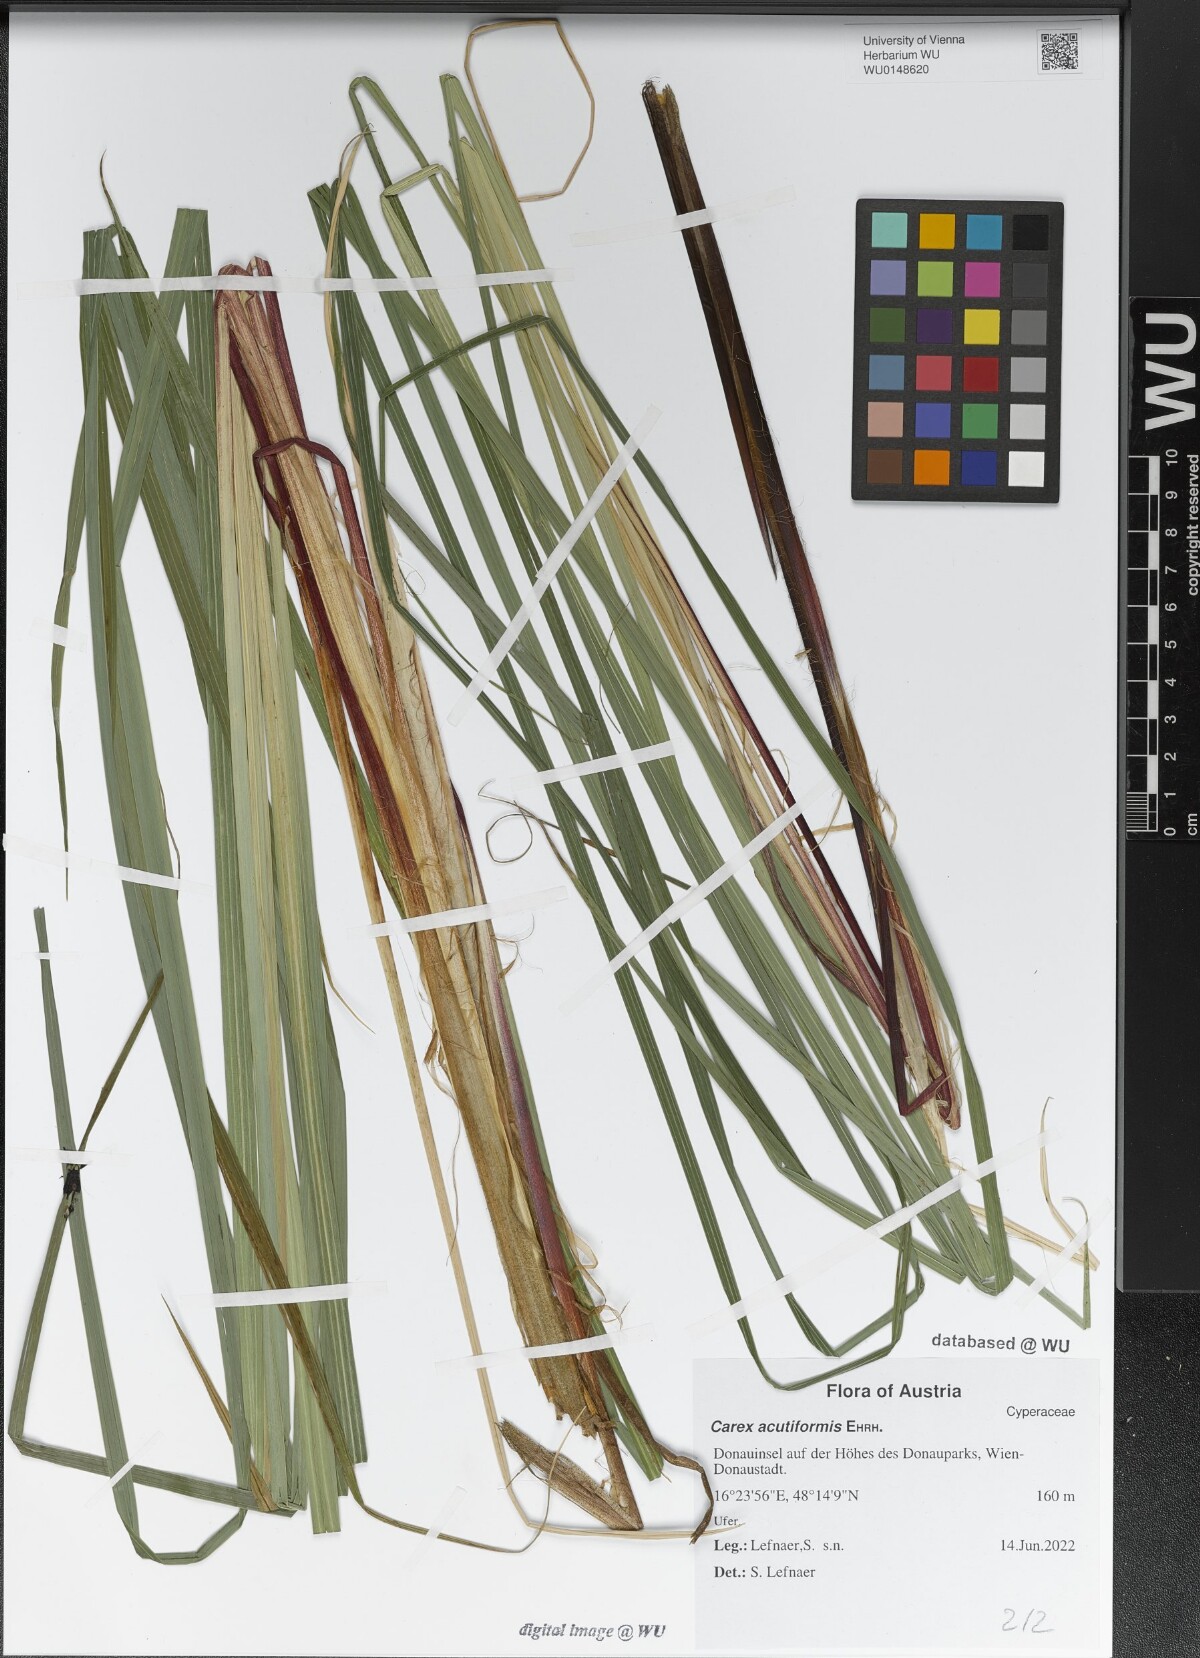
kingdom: Plantae
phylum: Tracheophyta
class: Liliopsida
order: Poales
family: Cyperaceae
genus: Carex
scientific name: Carex acutiformis
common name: Lesser pond-sedge
